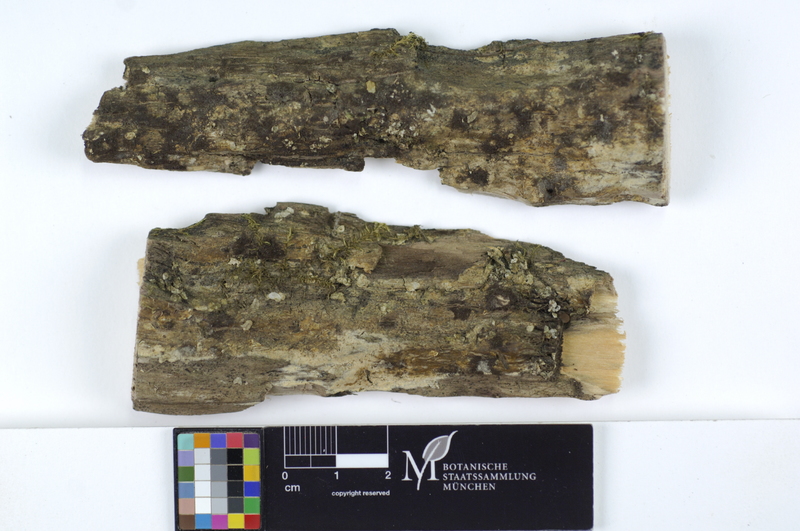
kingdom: Fungi
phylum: Basidiomycota
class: Agaricomycetes
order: Polyporales
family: Meruliaceae
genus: Bulbillomyces
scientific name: Bulbillomyces farinosus
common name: Couscous crust
